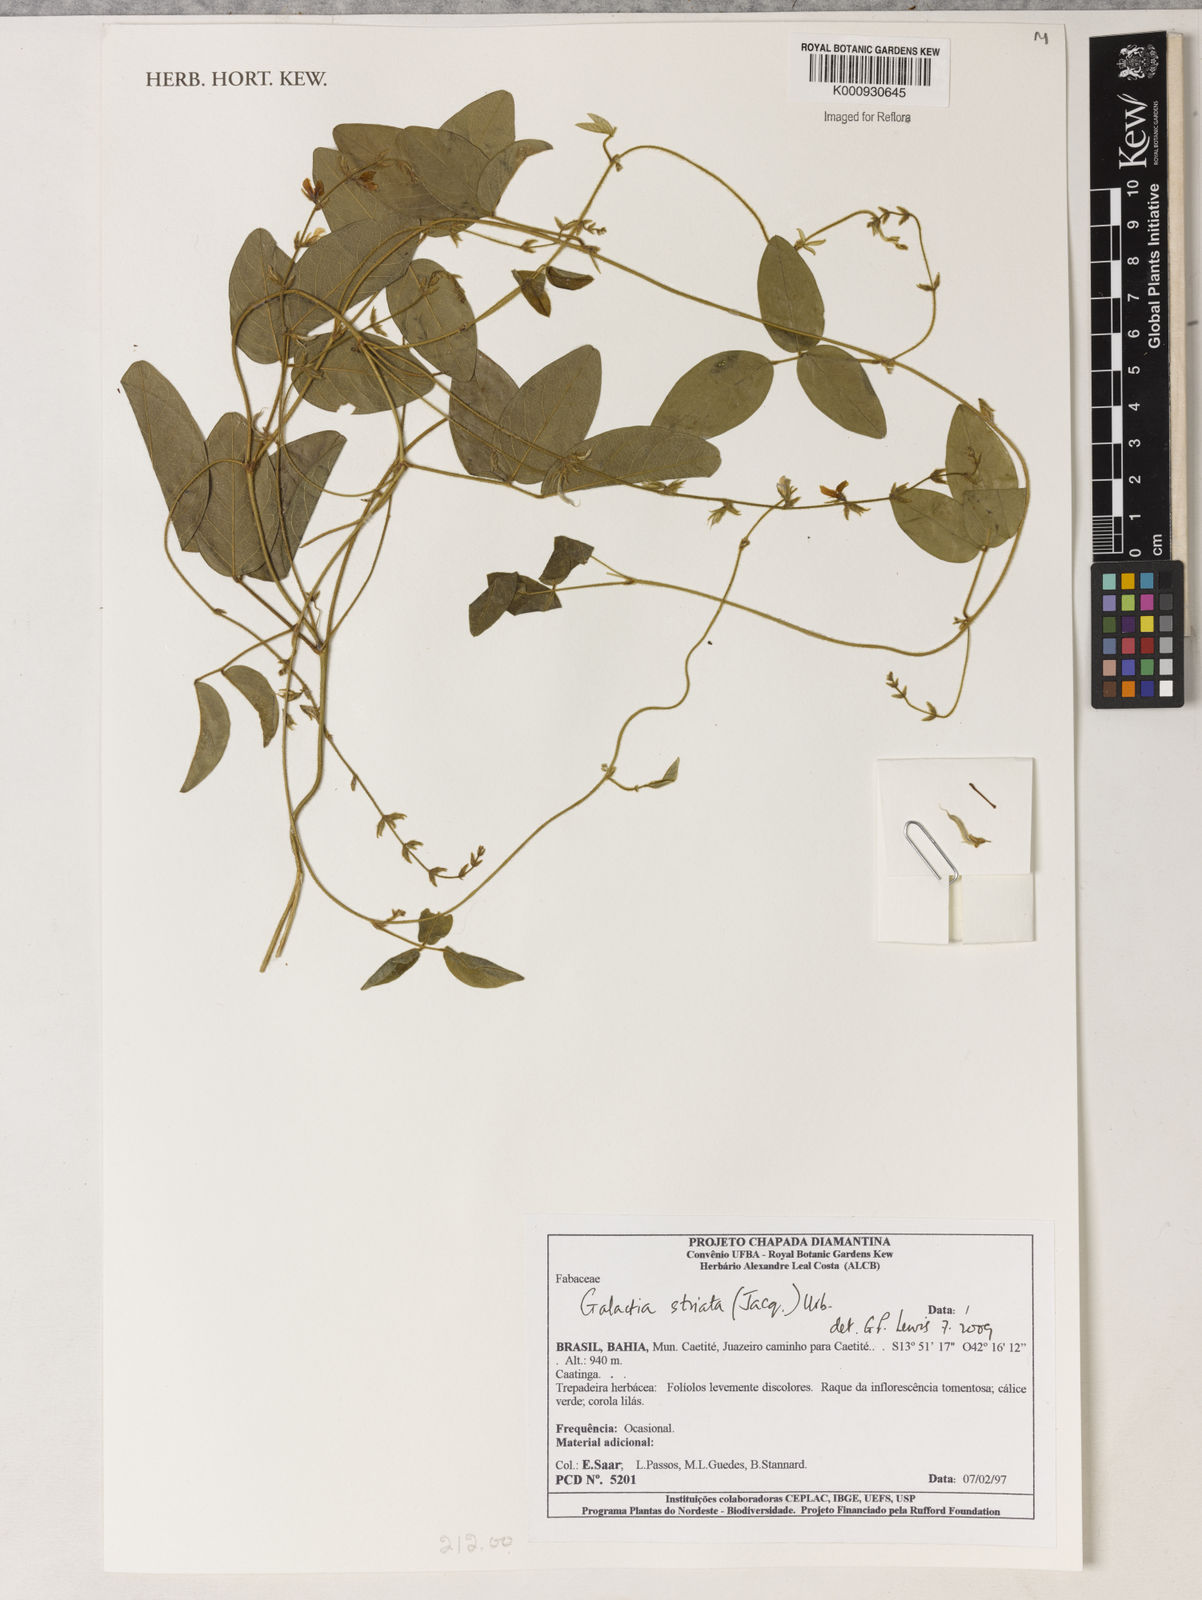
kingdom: Plantae
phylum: Tracheophyta
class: Magnoliopsida
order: Fabales
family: Fabaceae
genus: Galactia
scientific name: Galactia striata
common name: Florida hammock milkpea
